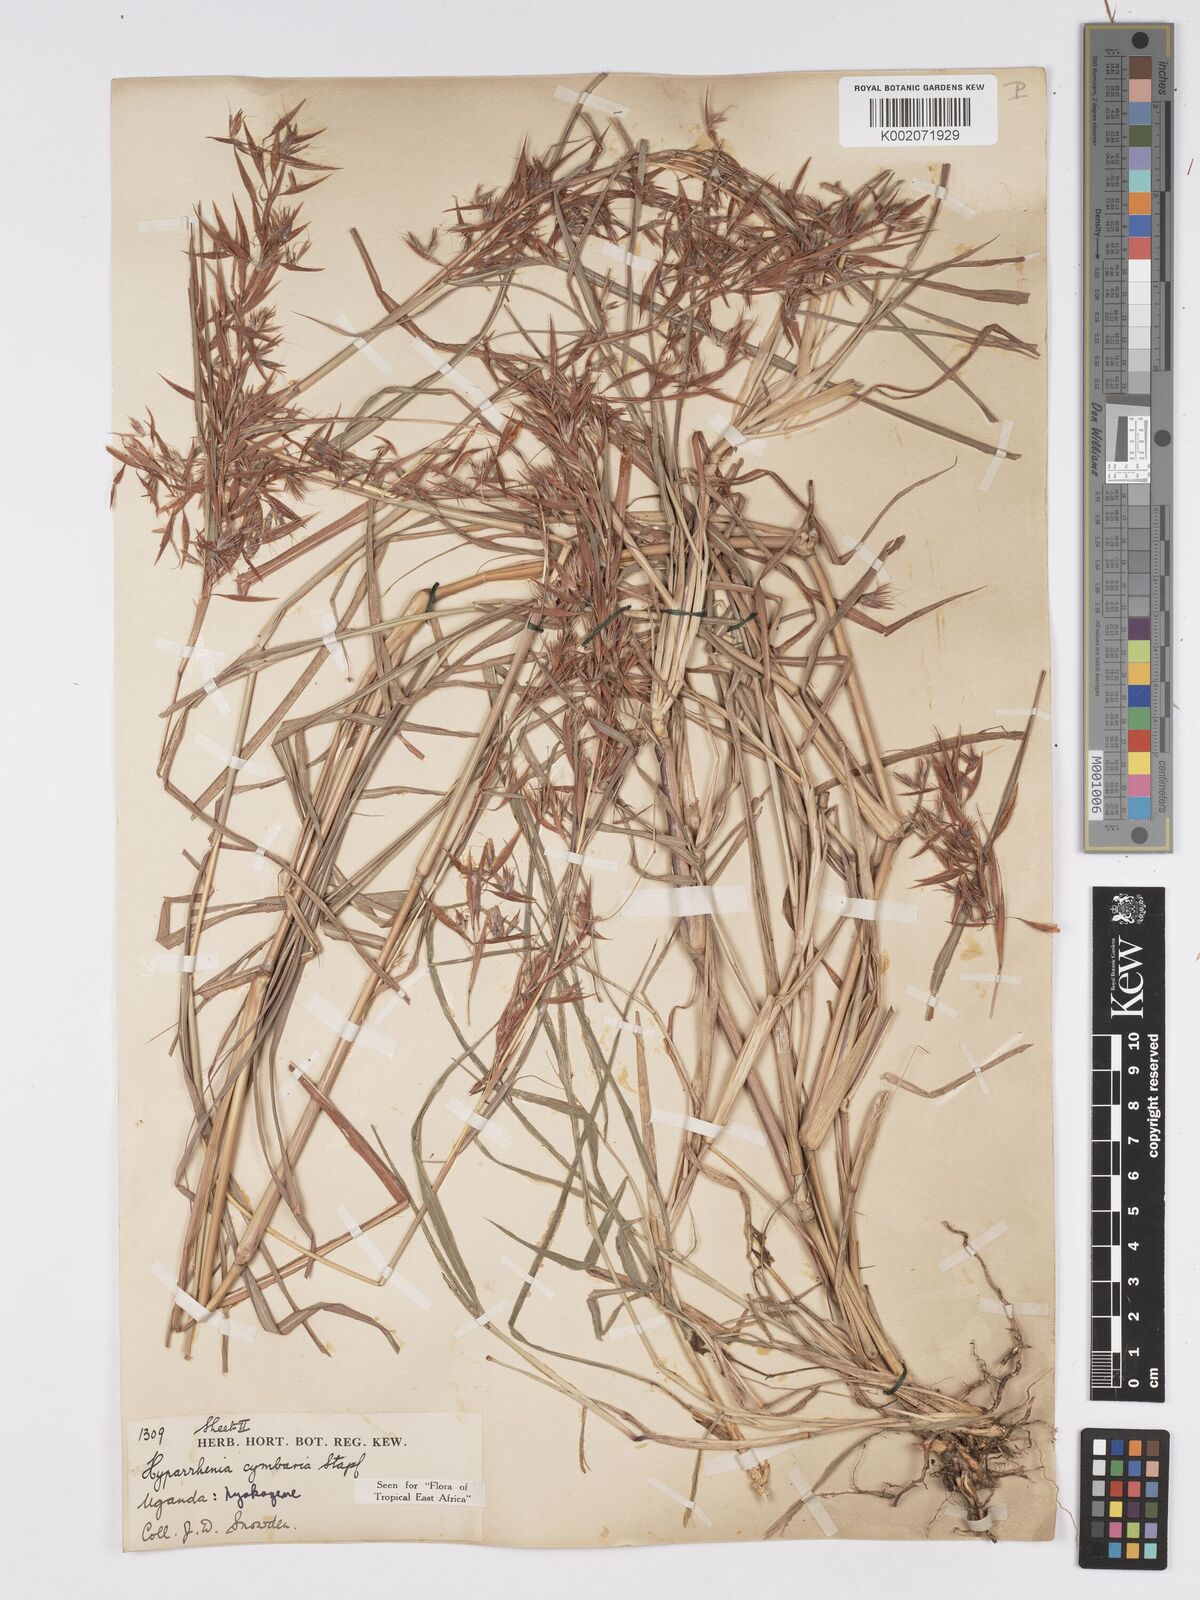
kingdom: Plantae
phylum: Tracheophyta
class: Liliopsida
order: Poales
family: Poaceae
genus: Hyparrhenia
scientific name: Hyparrhenia cymbaria
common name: Boat thatching grass
